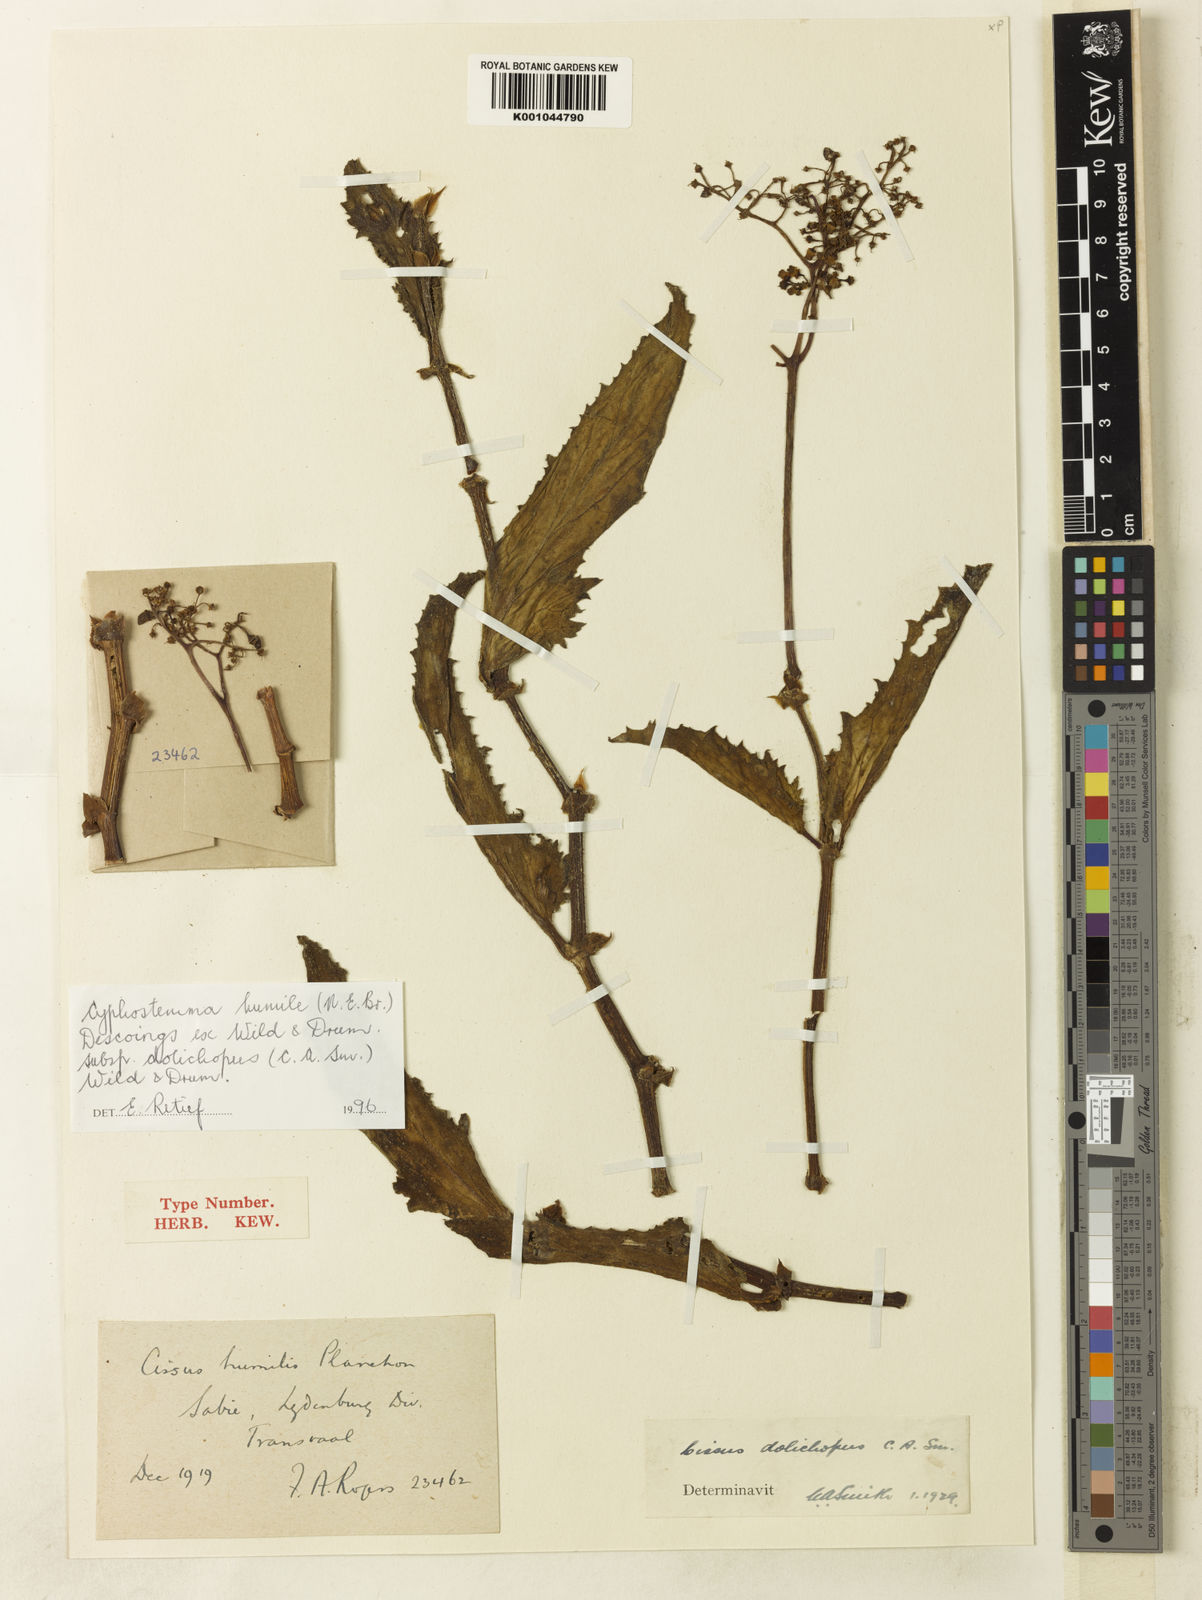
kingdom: Plantae
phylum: Tracheophyta
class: Magnoliopsida
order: Vitales
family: Vitaceae
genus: Cyphostemma
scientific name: Cyphostemma
